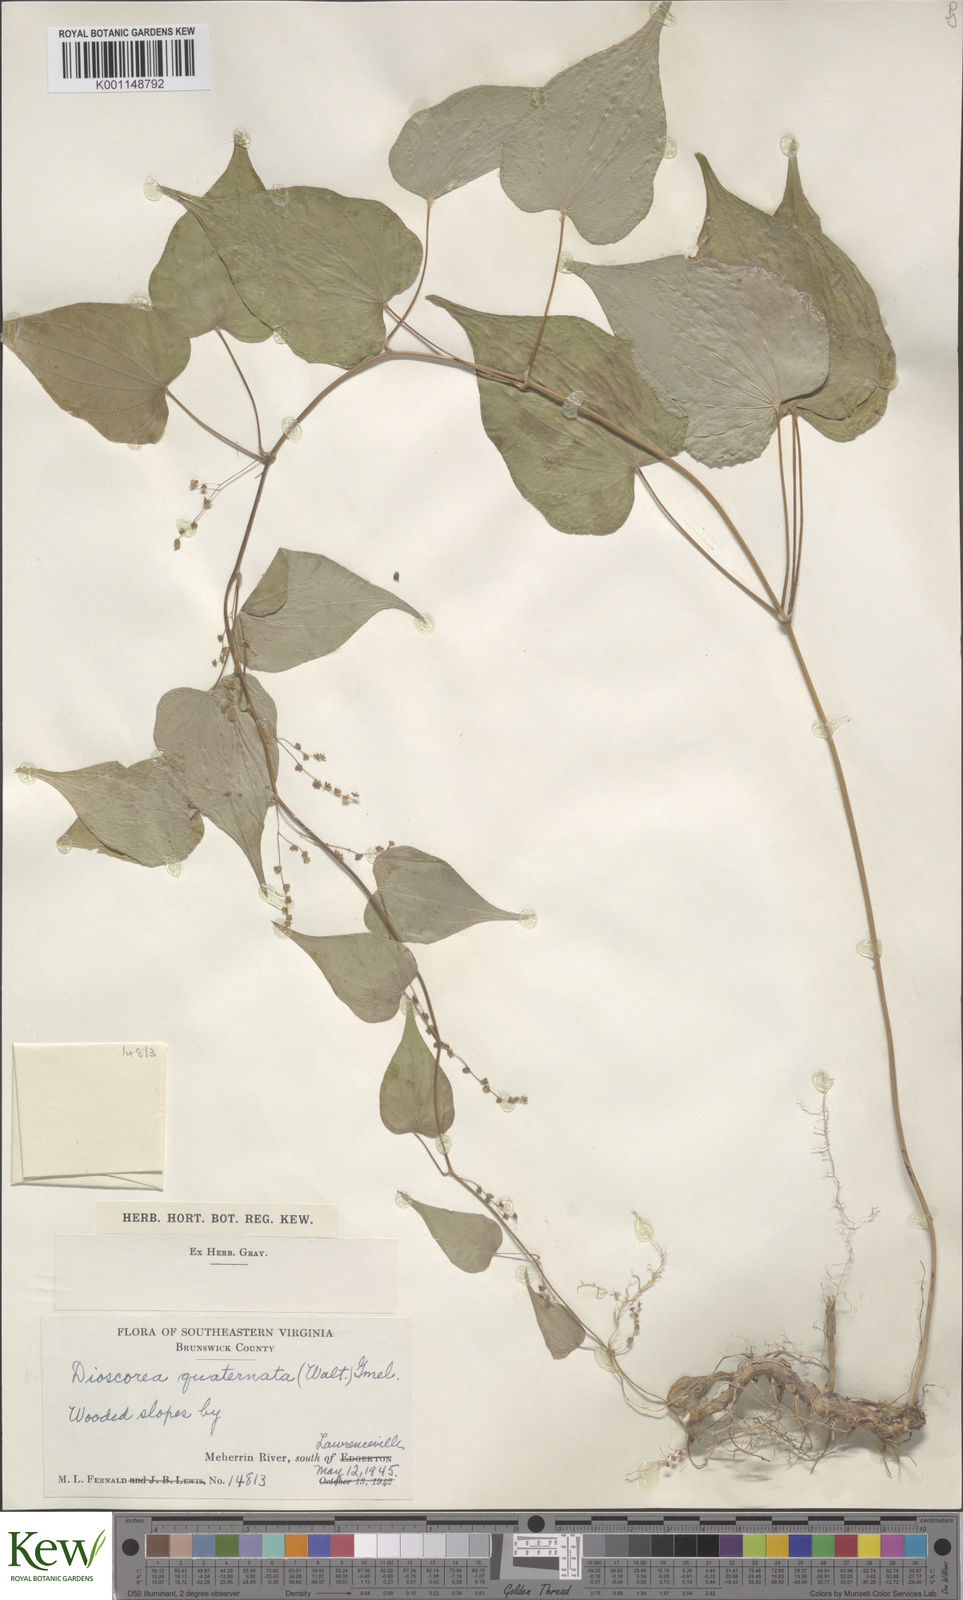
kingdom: Plantae
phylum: Tracheophyta
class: Liliopsida
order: Dioscoreales
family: Dioscoreaceae
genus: Dioscorea
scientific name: Dioscorea villosa
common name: Wild yam
